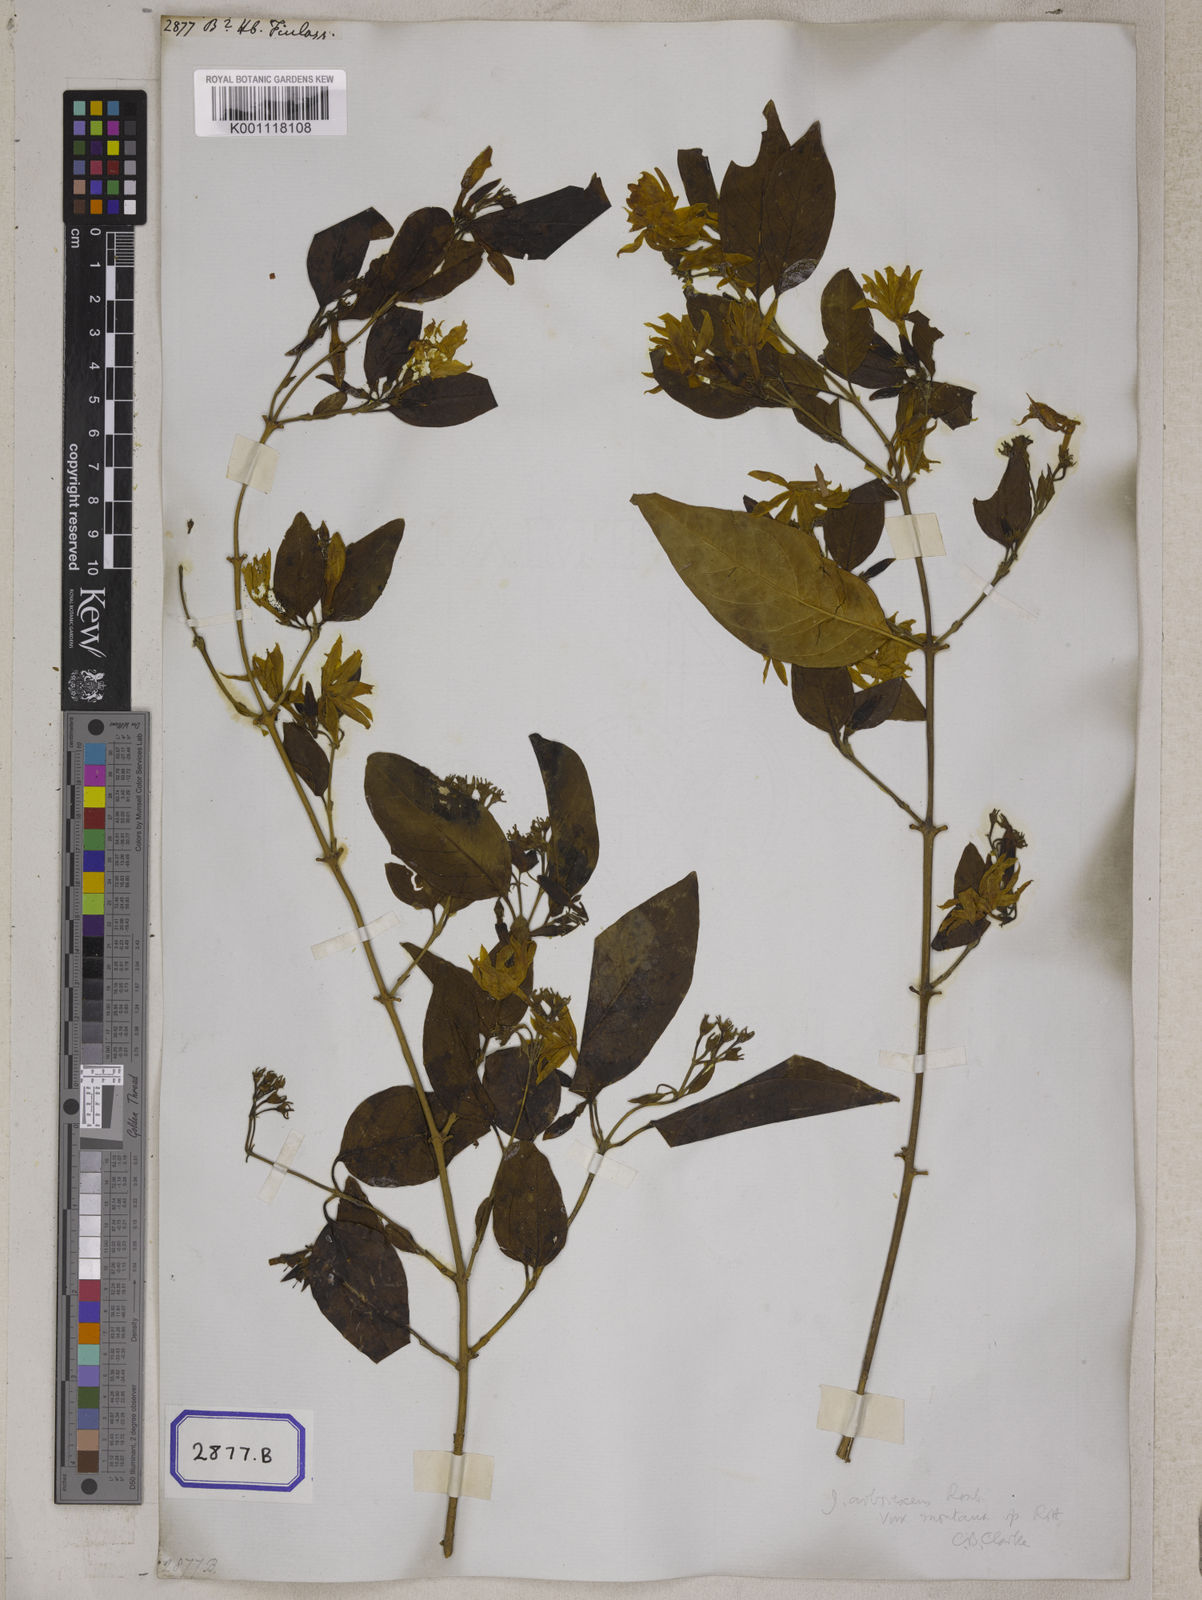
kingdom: Plantae
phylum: Tracheophyta
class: Magnoliopsida
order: Lamiales
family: Oleaceae
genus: Jasminum
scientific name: Jasminum
